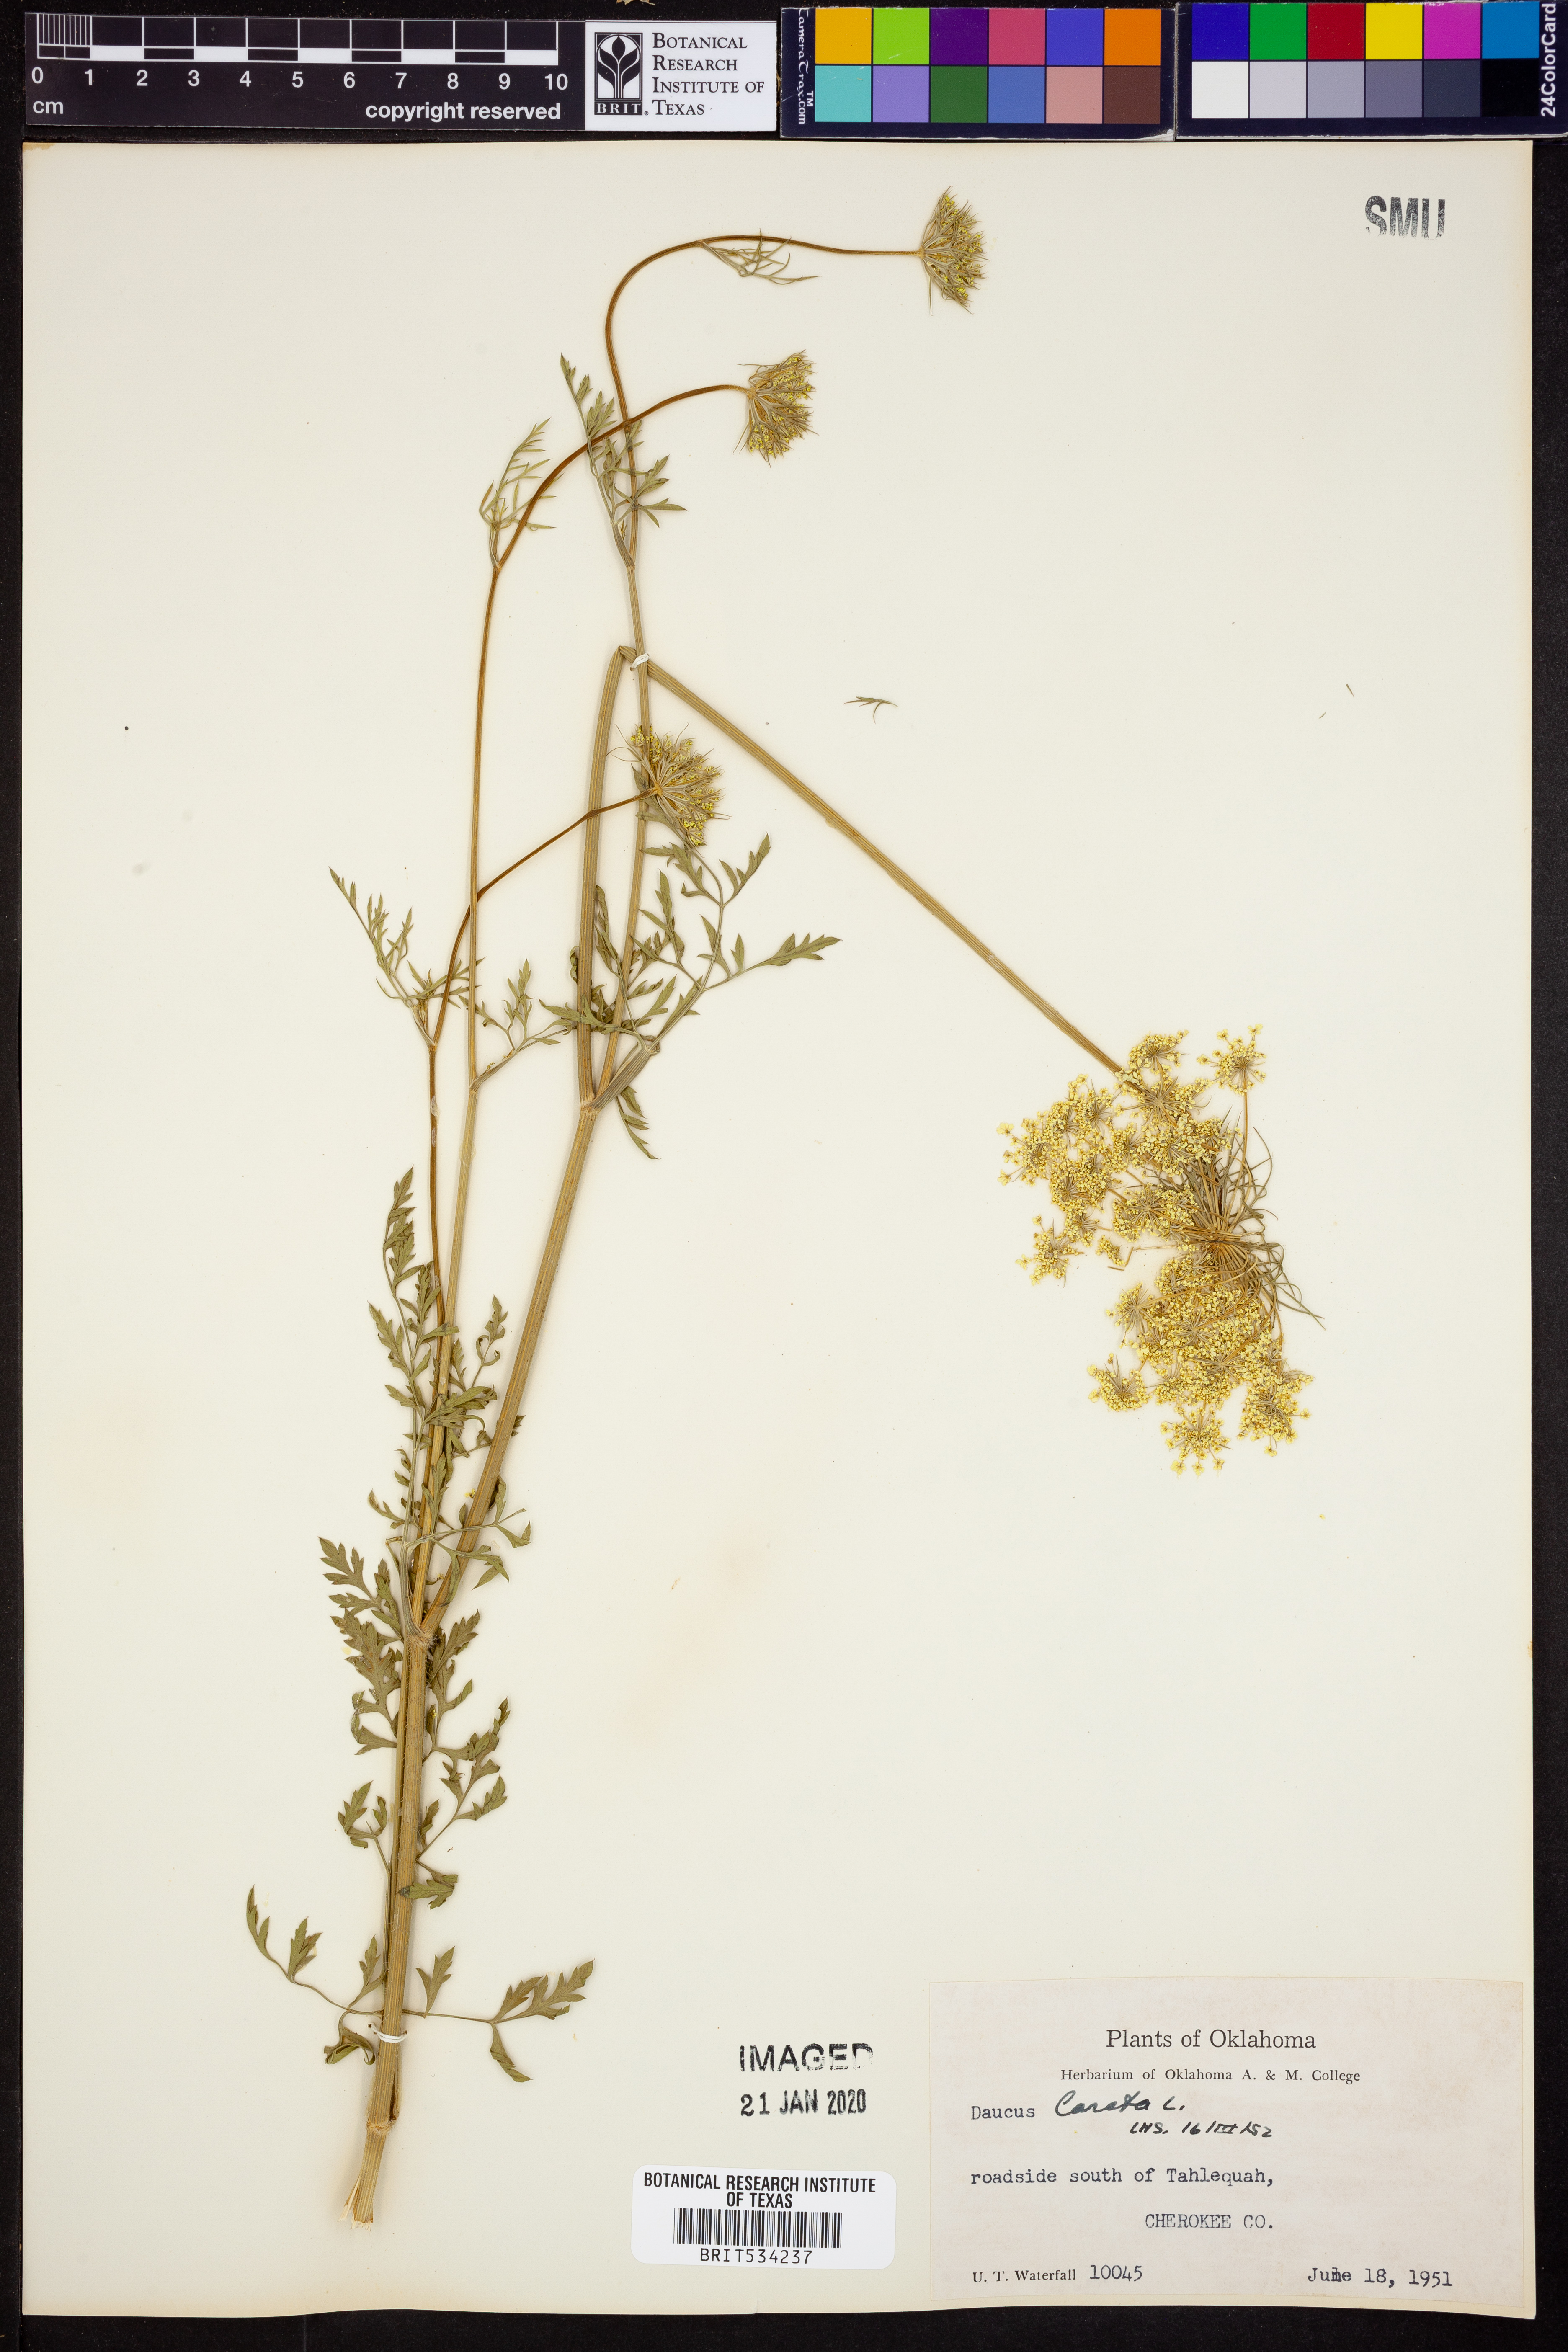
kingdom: Plantae
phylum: Tracheophyta
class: Magnoliopsida
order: Apiales
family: Apiaceae
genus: Daucus
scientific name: Daucus carota
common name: Wild carrot
